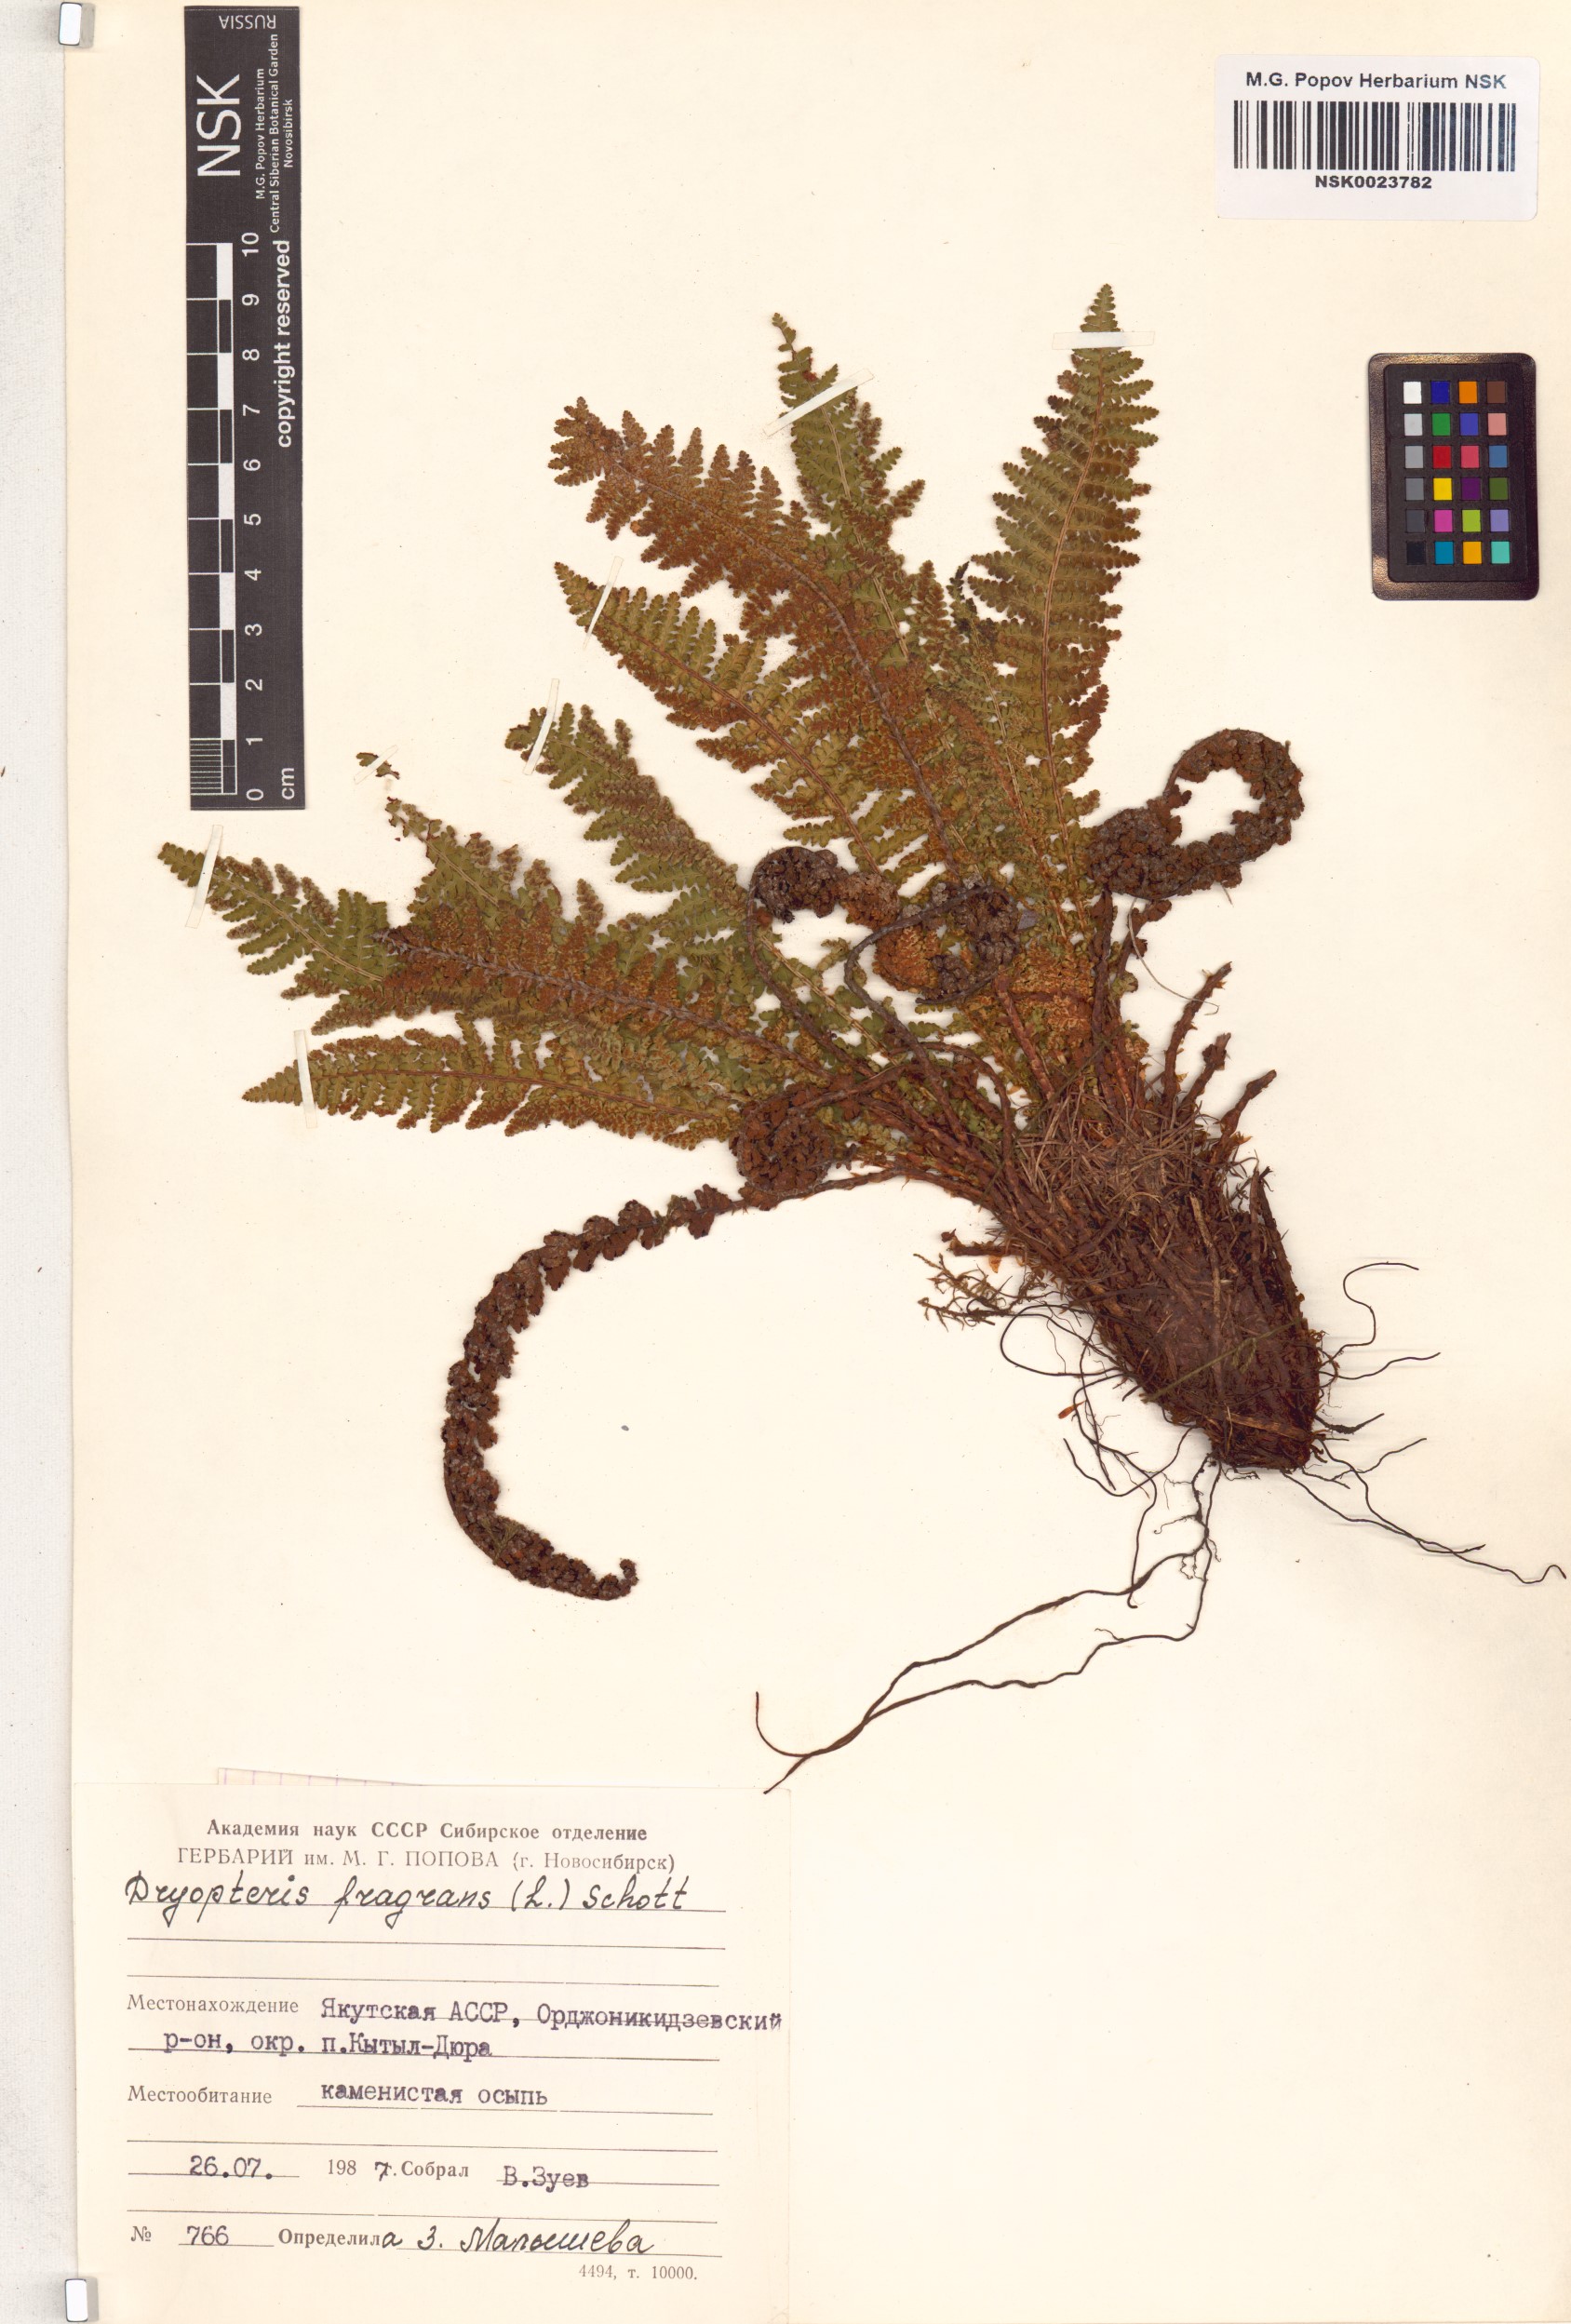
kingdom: Plantae
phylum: Tracheophyta
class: Polypodiopsida
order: Polypodiales
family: Dryopteridaceae
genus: Dryopteris
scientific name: Dryopteris fragrans
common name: Fragrant wood fern
